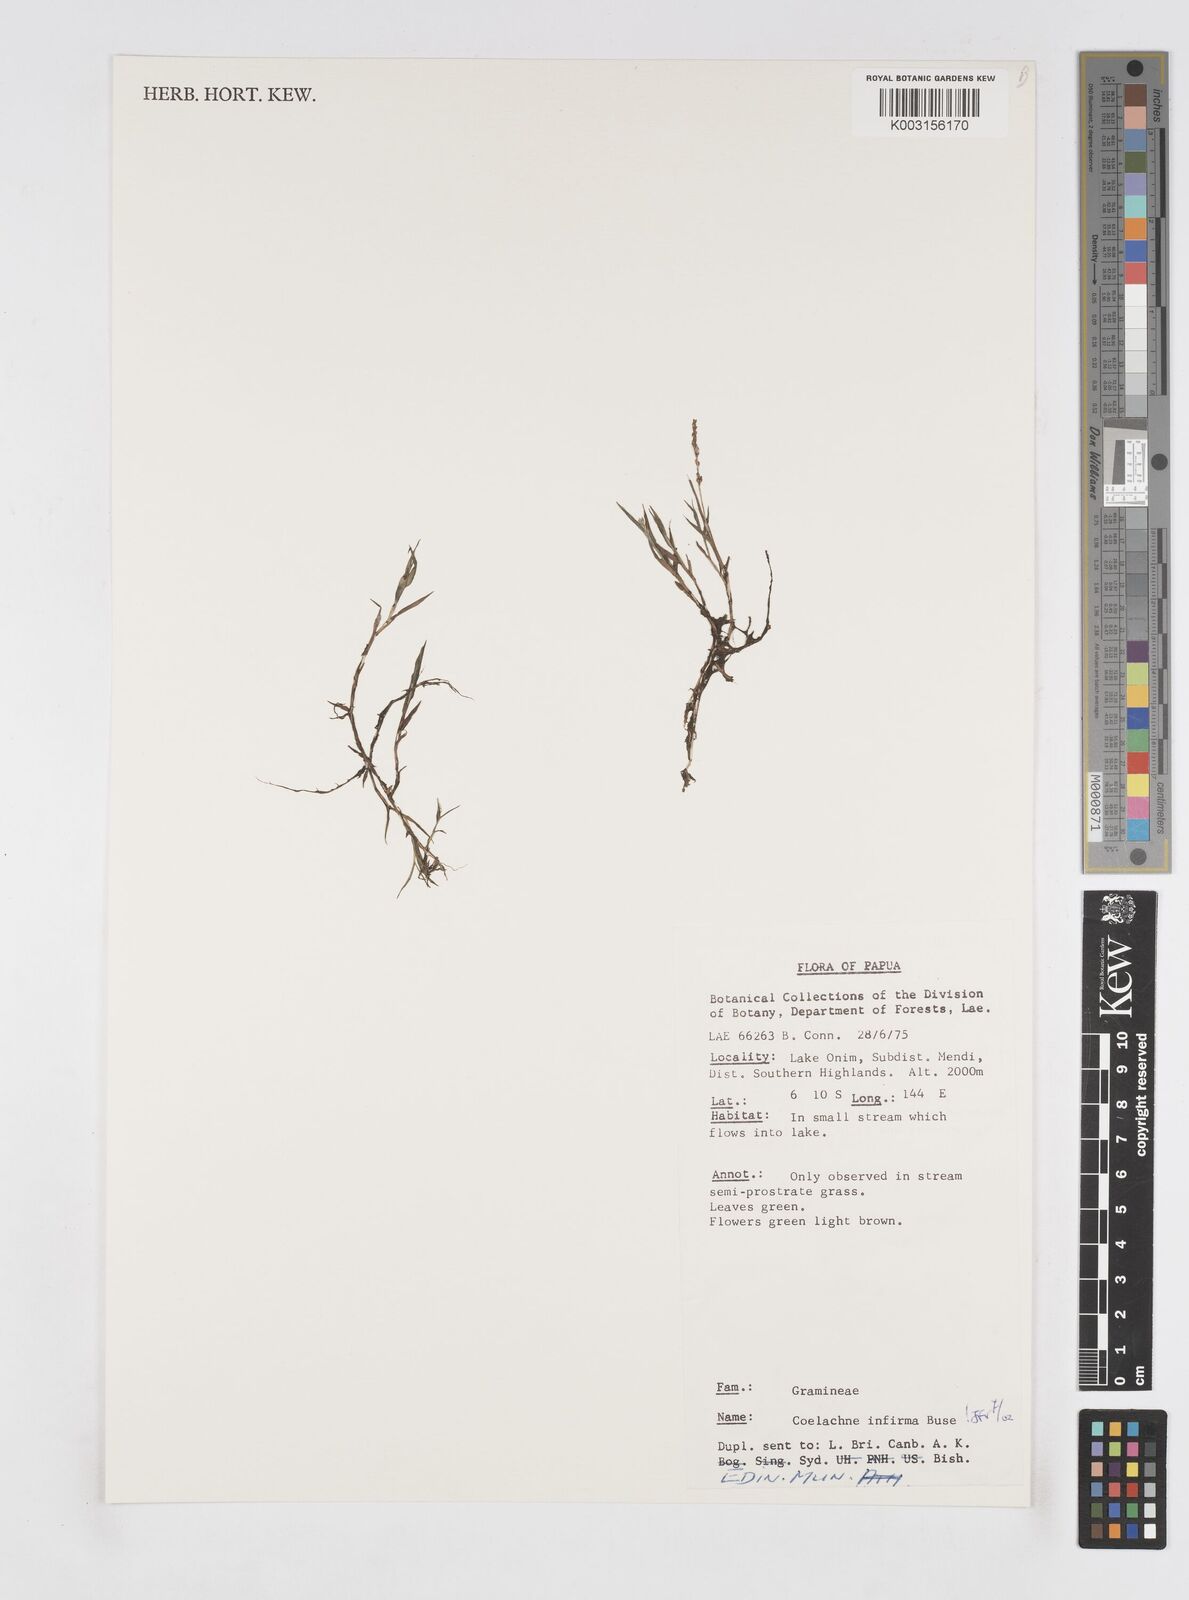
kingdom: Plantae
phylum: Tracheophyta
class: Liliopsida
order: Poales
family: Poaceae
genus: Coelachne
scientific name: Coelachne infirma
